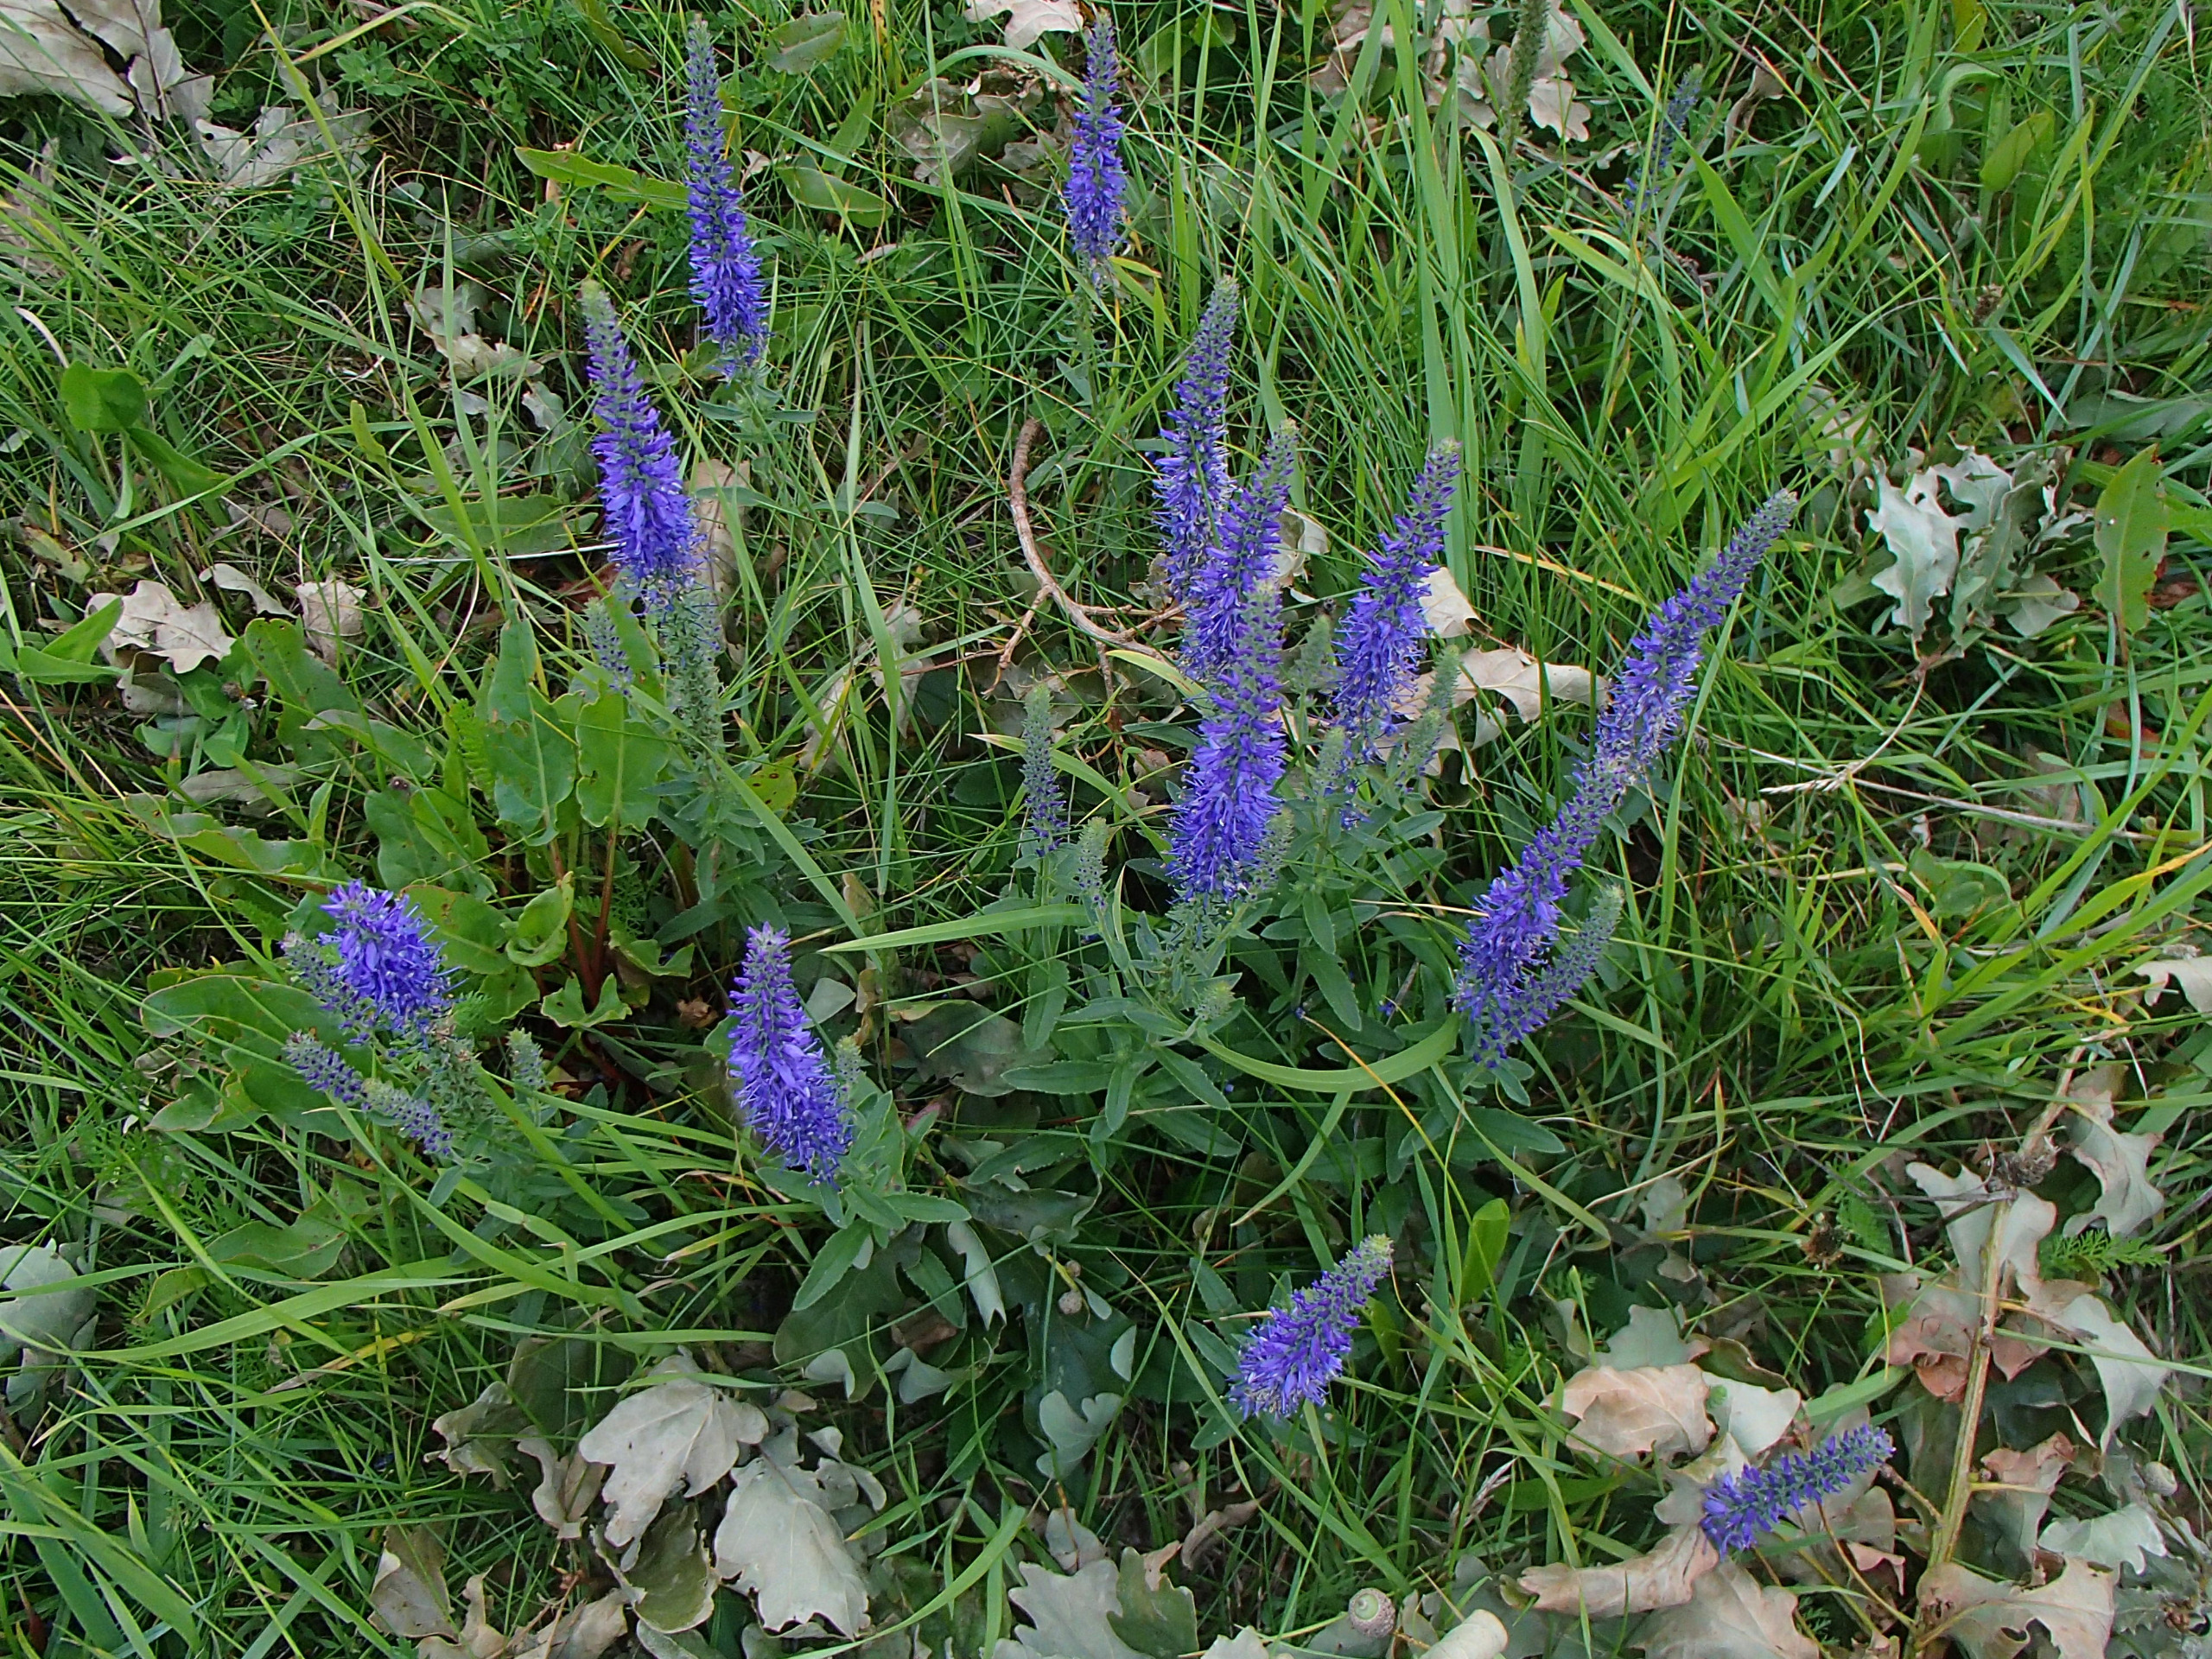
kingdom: Plantae
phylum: Tracheophyta
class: Magnoliopsida
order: Lamiales
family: Plantaginaceae
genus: Veronica
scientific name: Veronica spicata
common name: Aks-ærenpris
